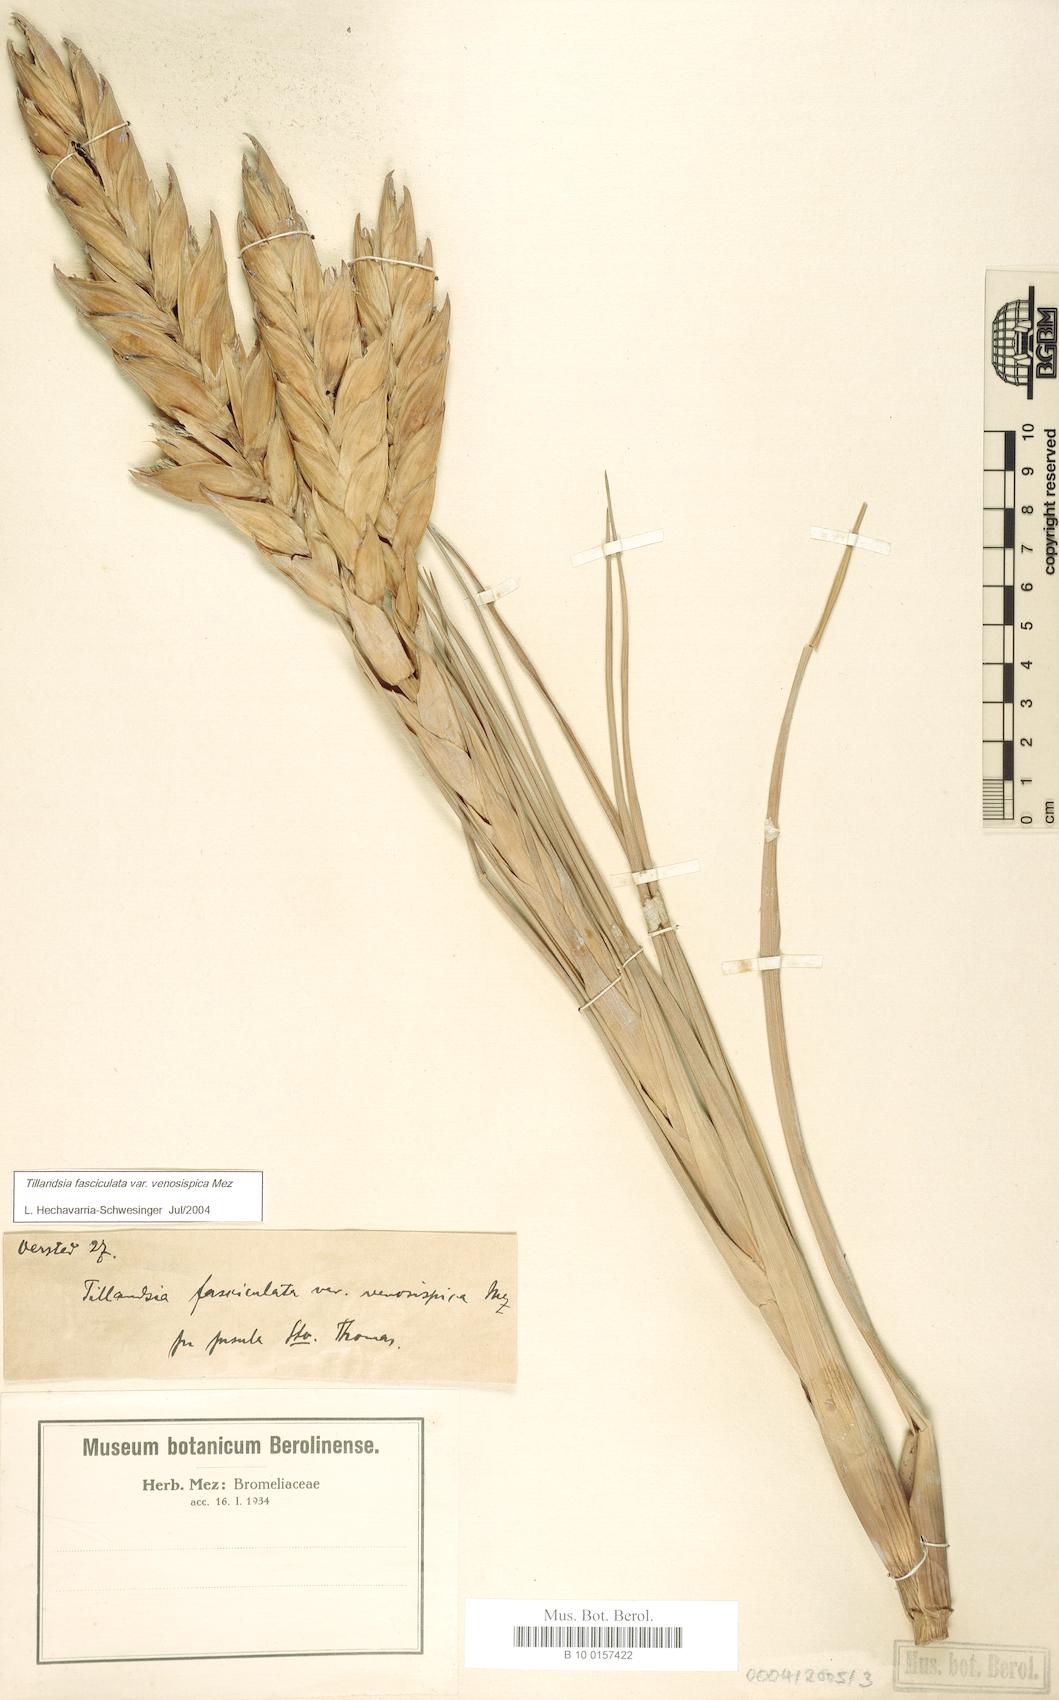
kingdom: Plantae
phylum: Tracheophyta
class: Liliopsida
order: Poales
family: Bromeliaceae
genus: Tillandsia
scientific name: Tillandsia compressa
